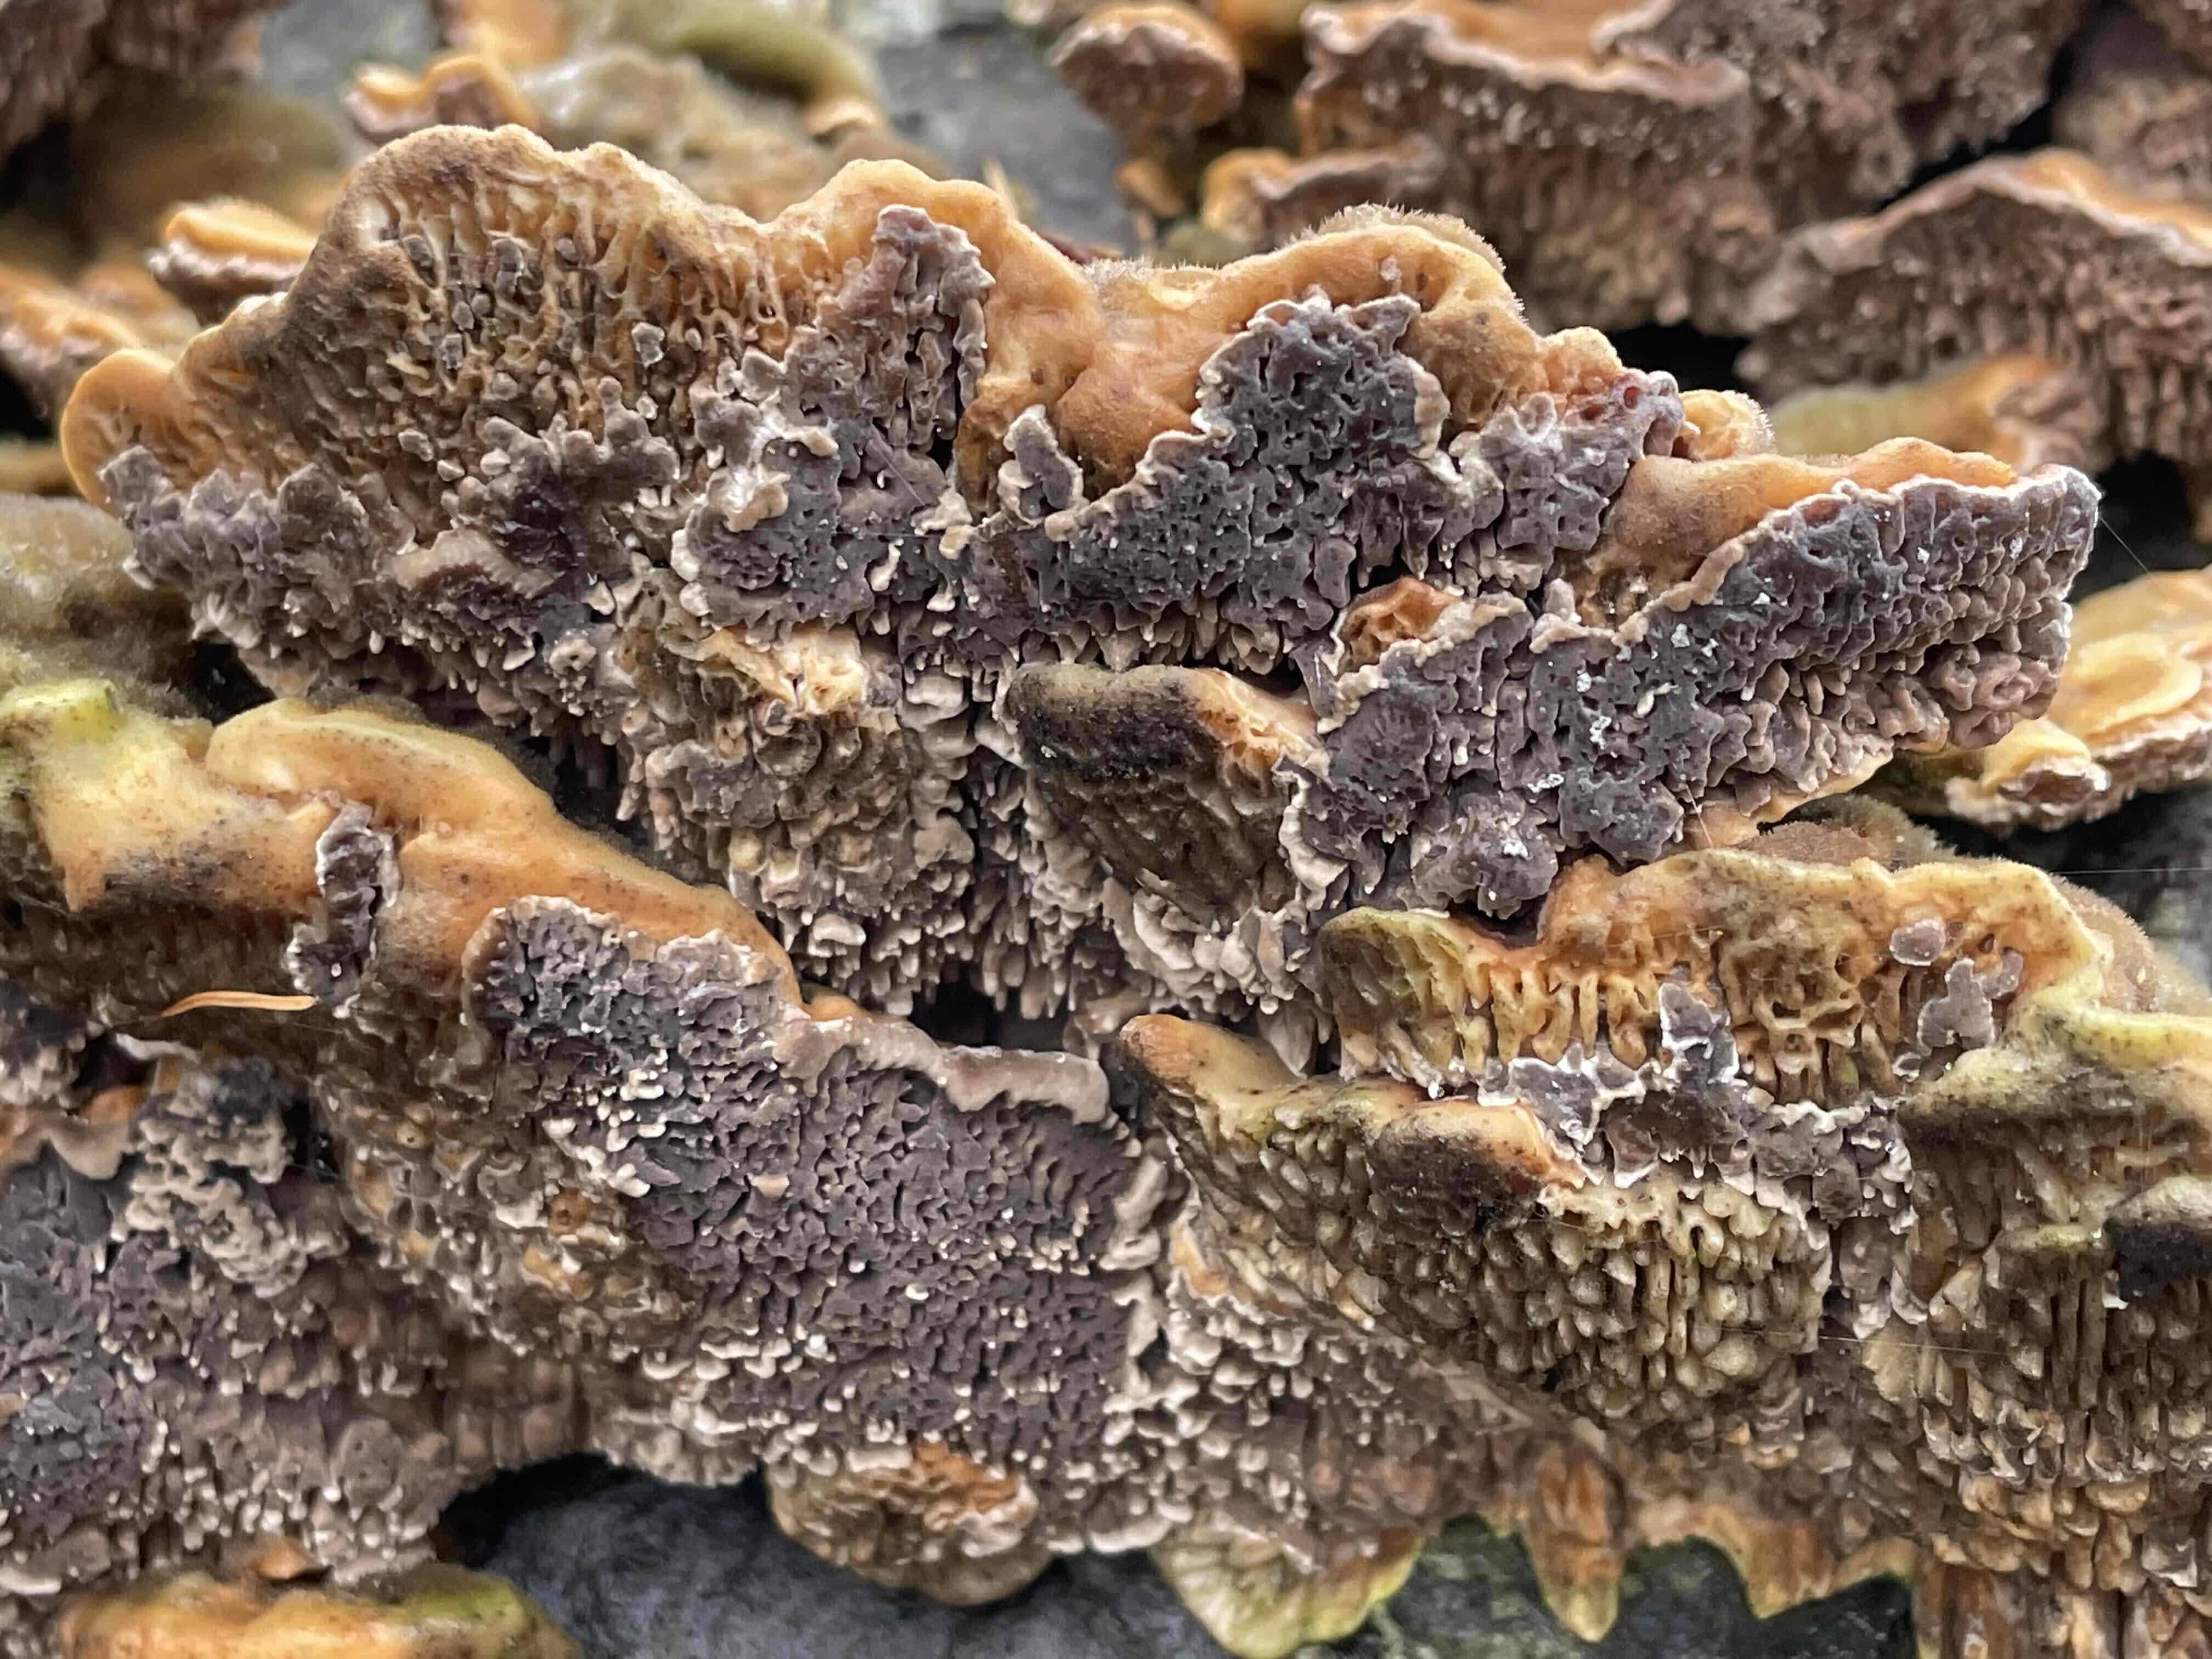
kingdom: Fungi
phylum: Basidiomycota
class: Agaricomycetes
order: Polyporales
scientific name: Polyporales
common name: poresvampordenen
